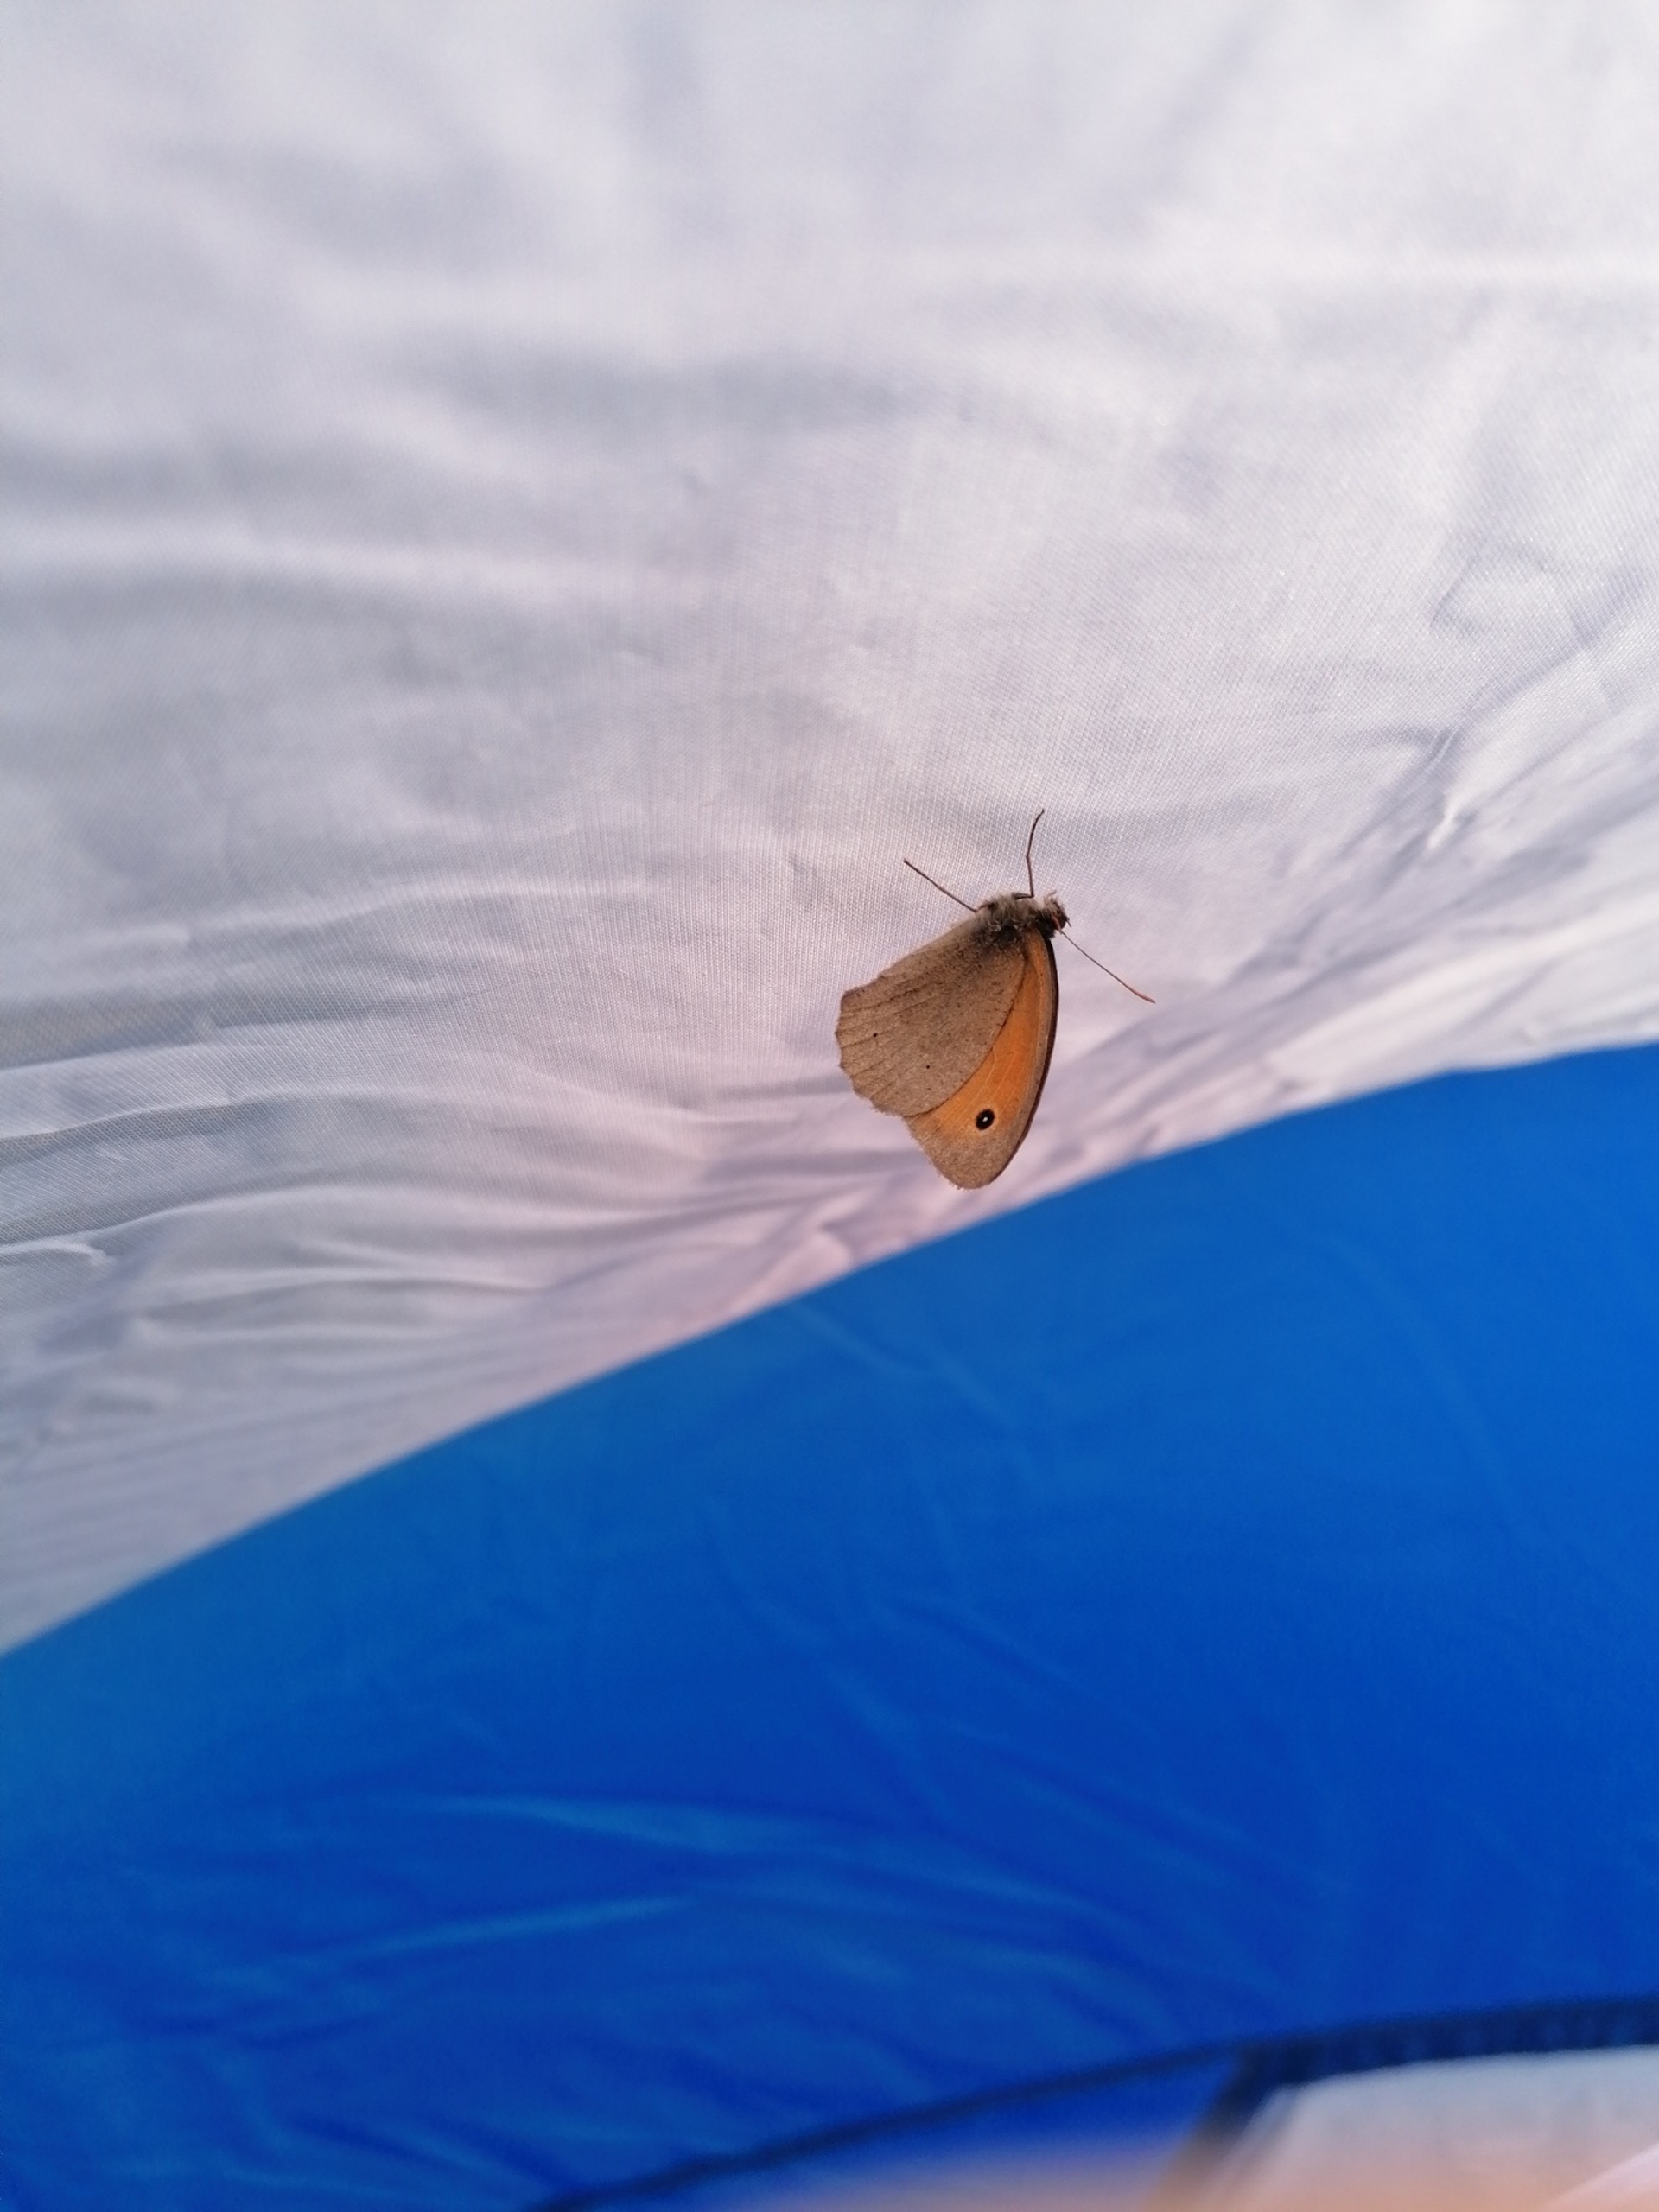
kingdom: Animalia
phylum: Arthropoda
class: Insecta
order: Lepidoptera
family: Nymphalidae
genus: Maniola
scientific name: Maniola jurtina
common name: Græsrandøje
